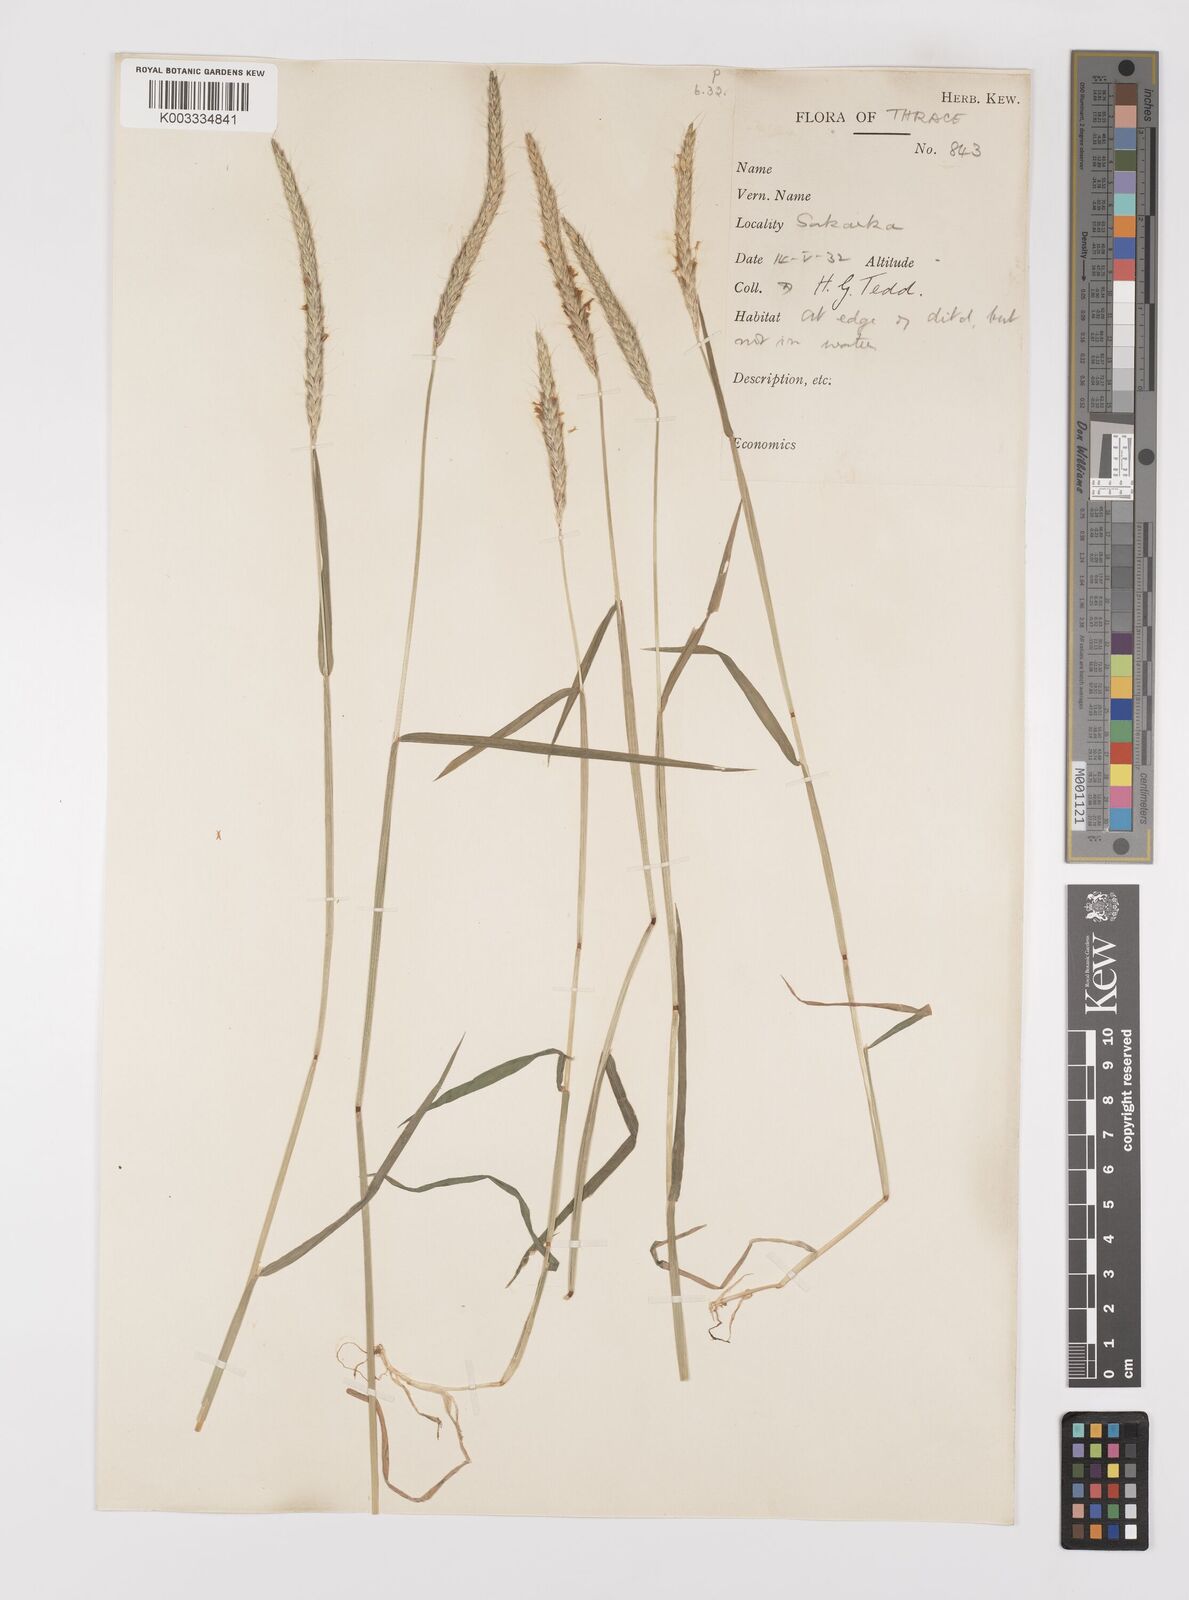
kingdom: Plantae
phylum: Tracheophyta
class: Liliopsida
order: Poales
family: Poaceae
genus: Alopecurus
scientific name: Alopecurus myosuroides
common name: Black-grass
